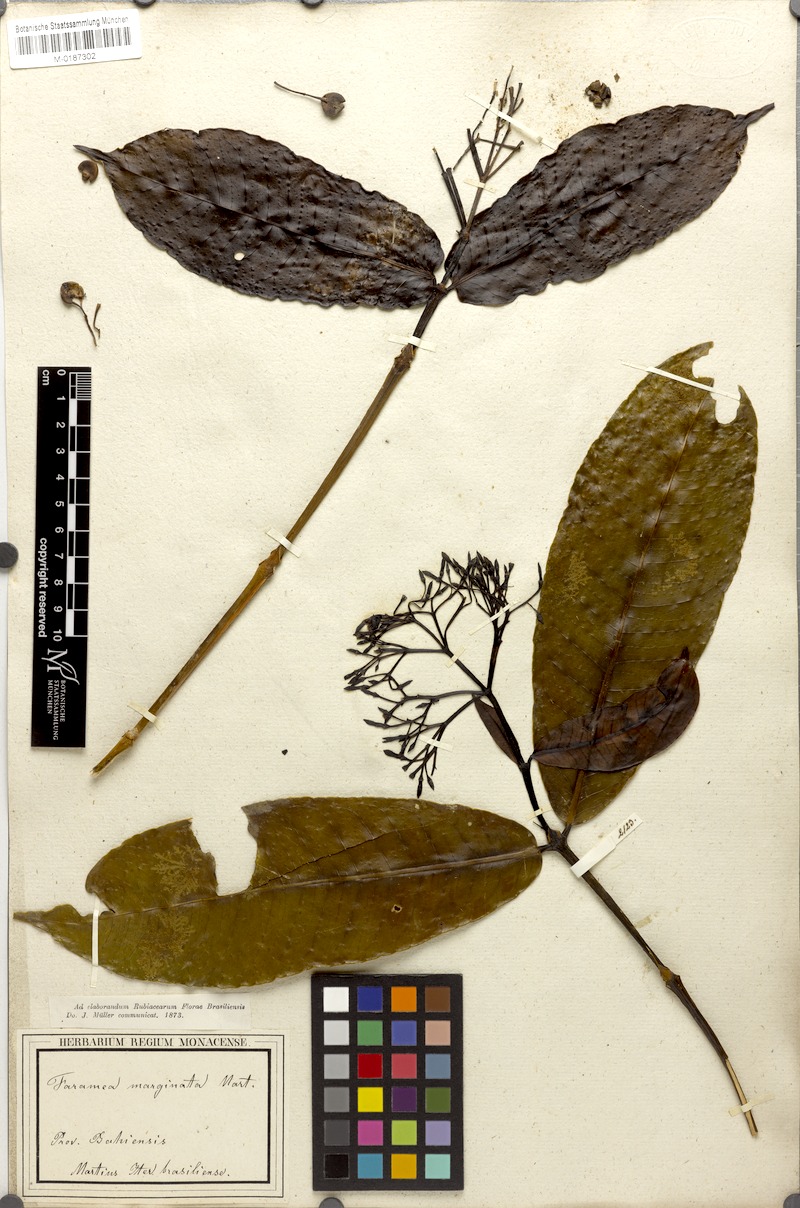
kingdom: Plantae
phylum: Tracheophyta
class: Magnoliopsida
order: Gentianales
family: Rubiaceae
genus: Faramea
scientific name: Faramea martiana
